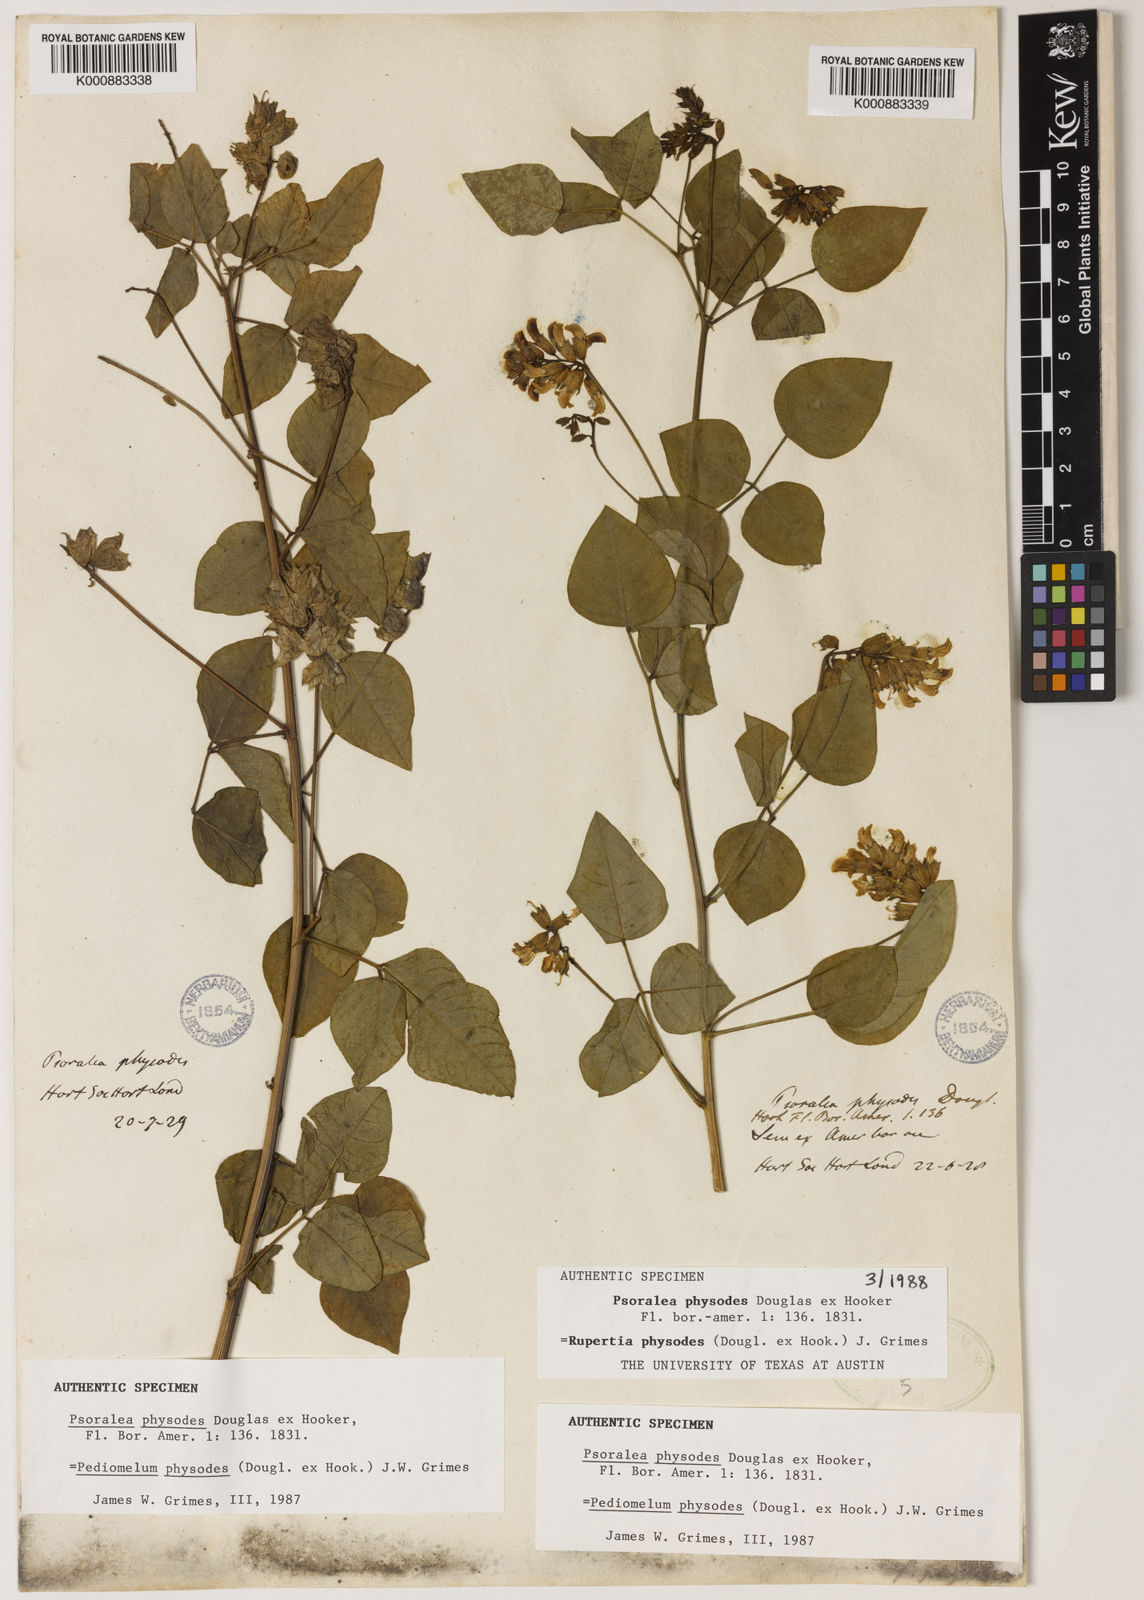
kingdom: Plantae
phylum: Tracheophyta
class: Magnoliopsida
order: Fabales
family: Fabaceae
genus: Rupertia
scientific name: Rupertia physodes
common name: California-tea
